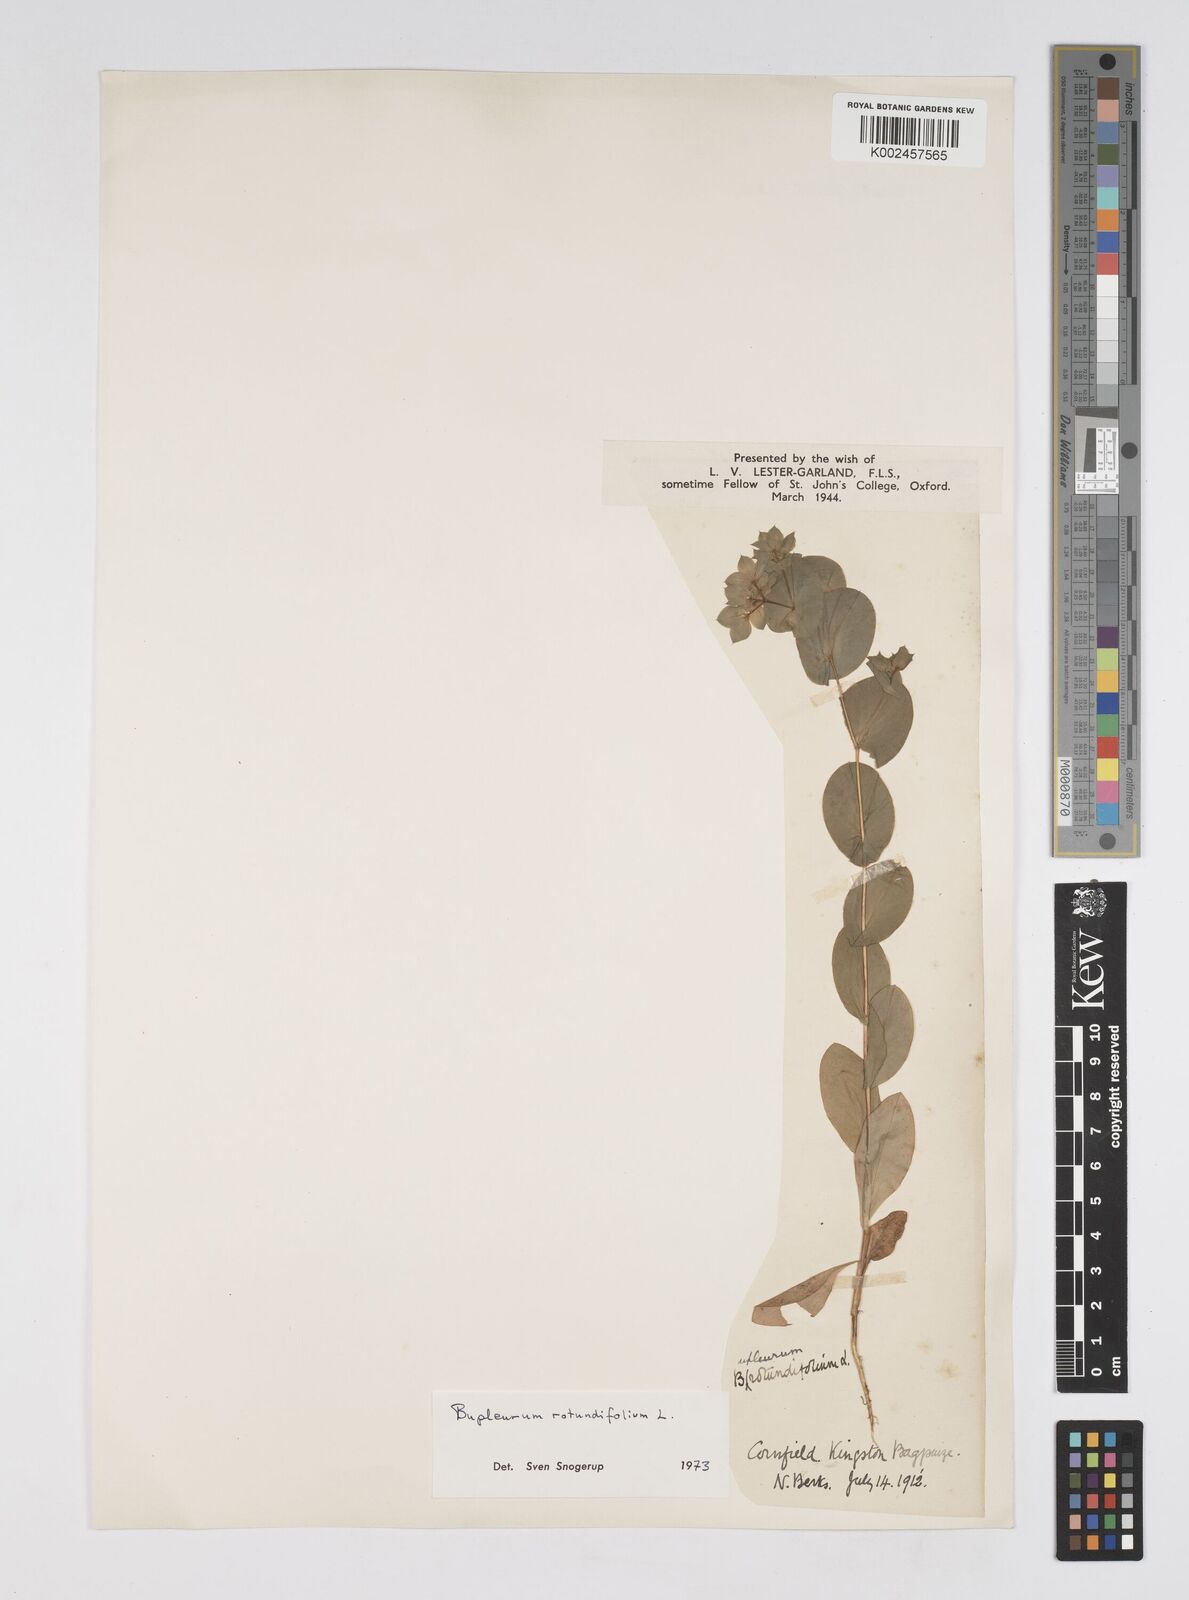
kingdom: Plantae
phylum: Tracheophyta
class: Magnoliopsida
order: Apiales
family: Apiaceae
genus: Bupleurum
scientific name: Bupleurum rotundifolium
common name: Thorow-wax
